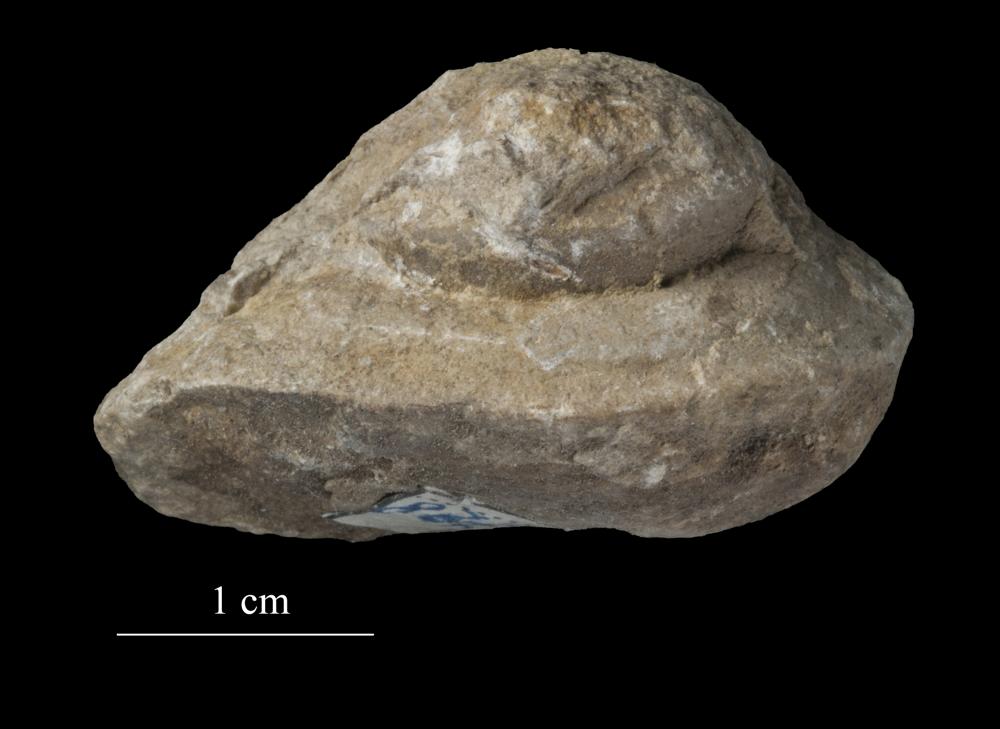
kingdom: Animalia
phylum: Mollusca
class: Gastropoda
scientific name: Gastropoda
